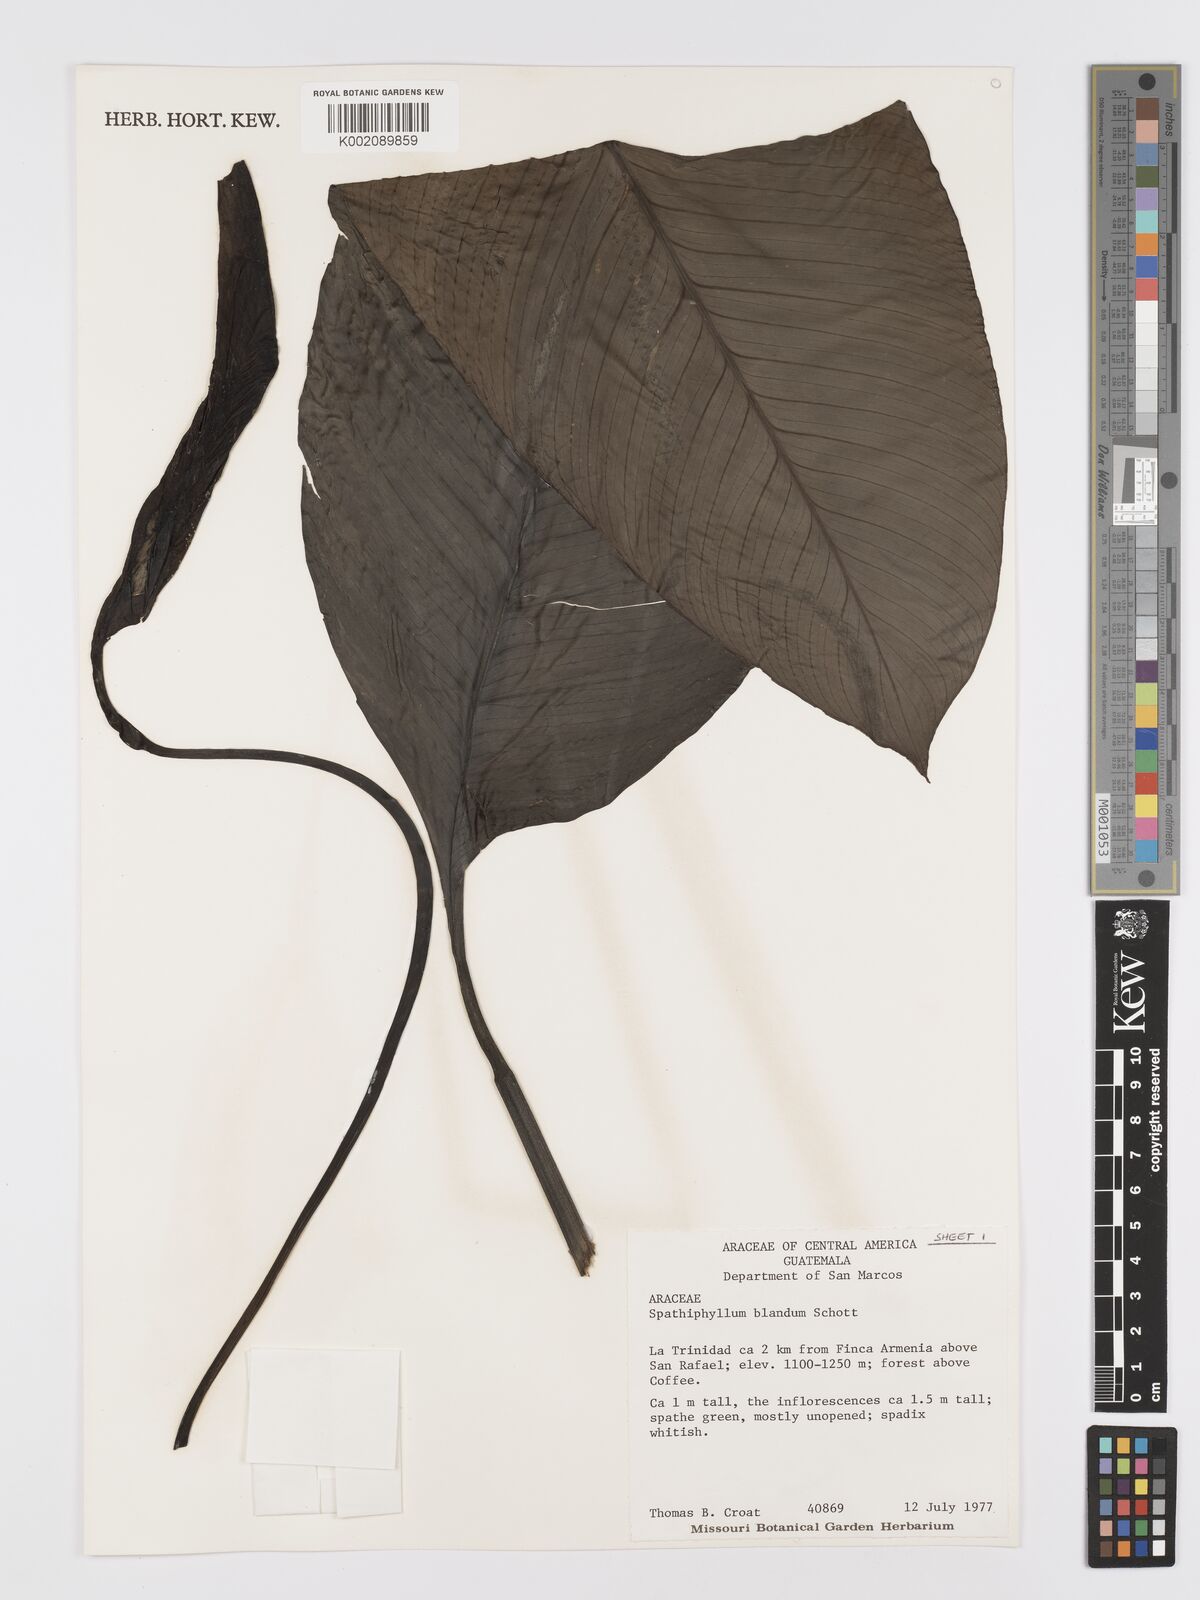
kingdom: Plantae
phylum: Tracheophyta
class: Liliopsida
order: Alismatales
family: Araceae
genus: Spathiphyllum
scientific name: Spathiphyllum blandum
